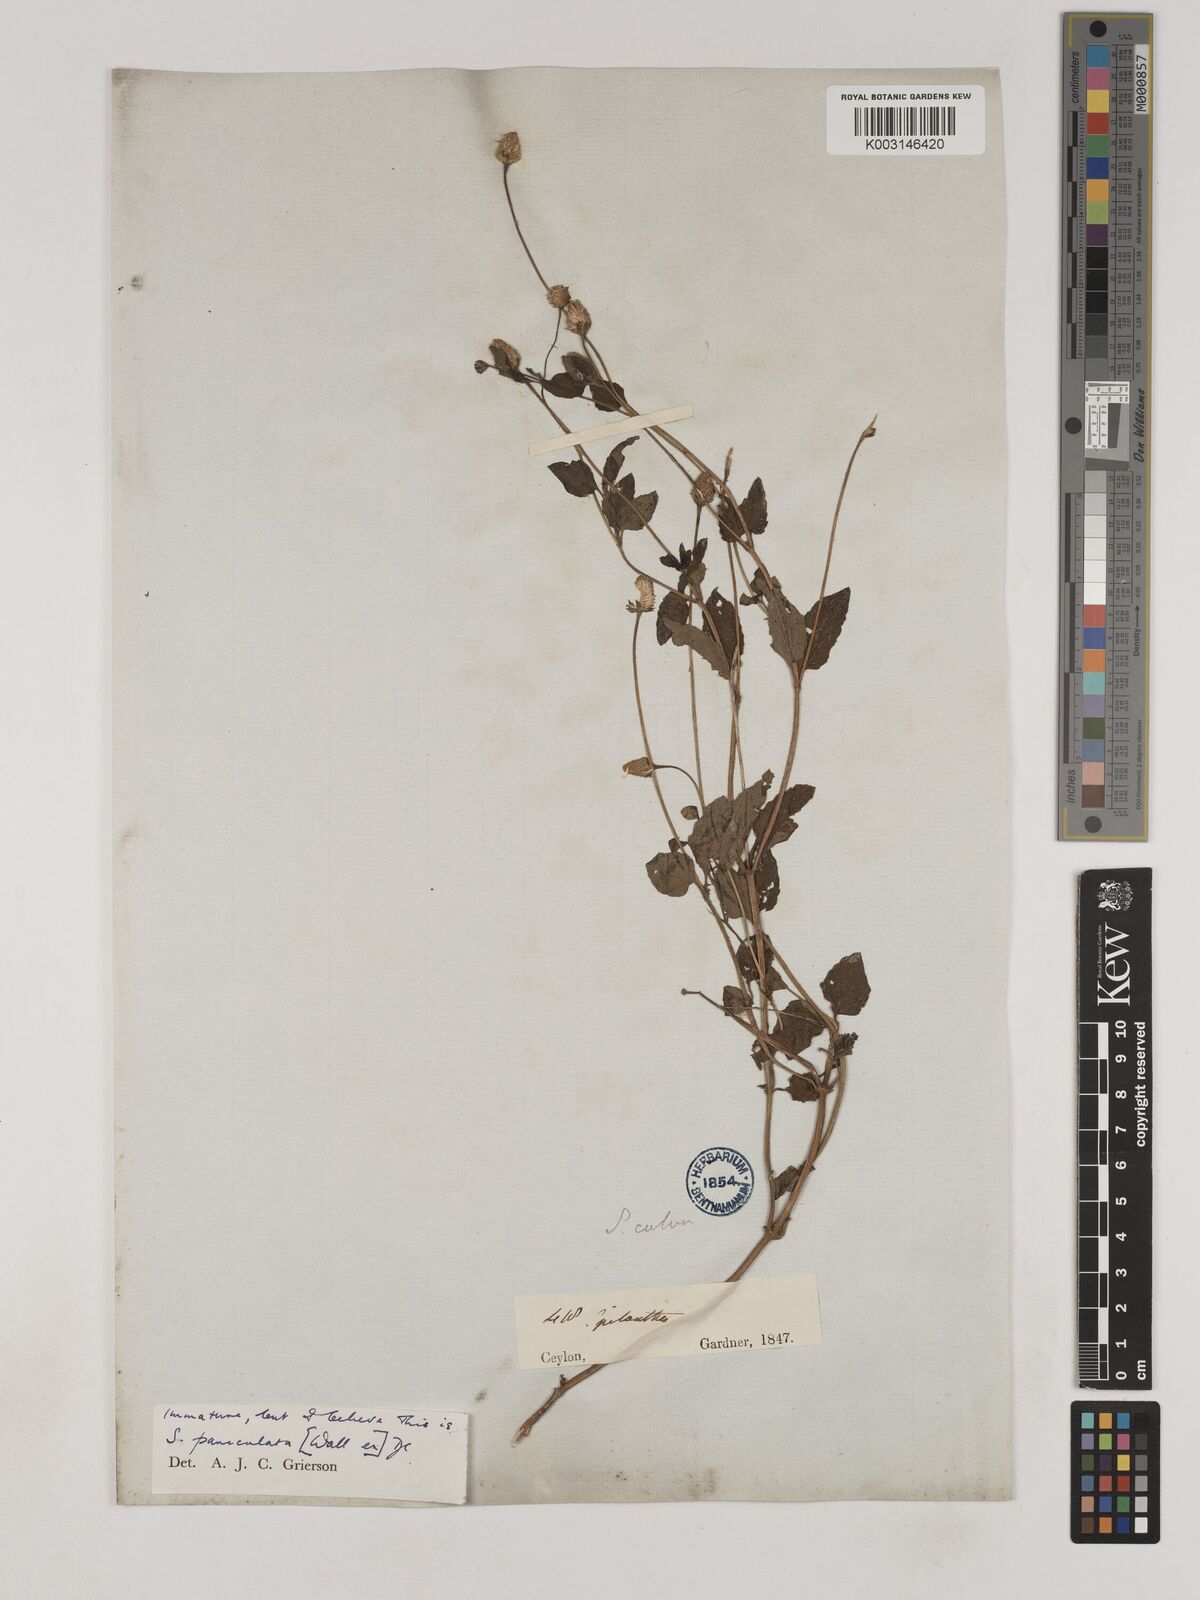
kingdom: Plantae
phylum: Tracheophyta
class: Magnoliopsida
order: Asterales
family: Asteraceae
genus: Acmella
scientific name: Acmella calva
